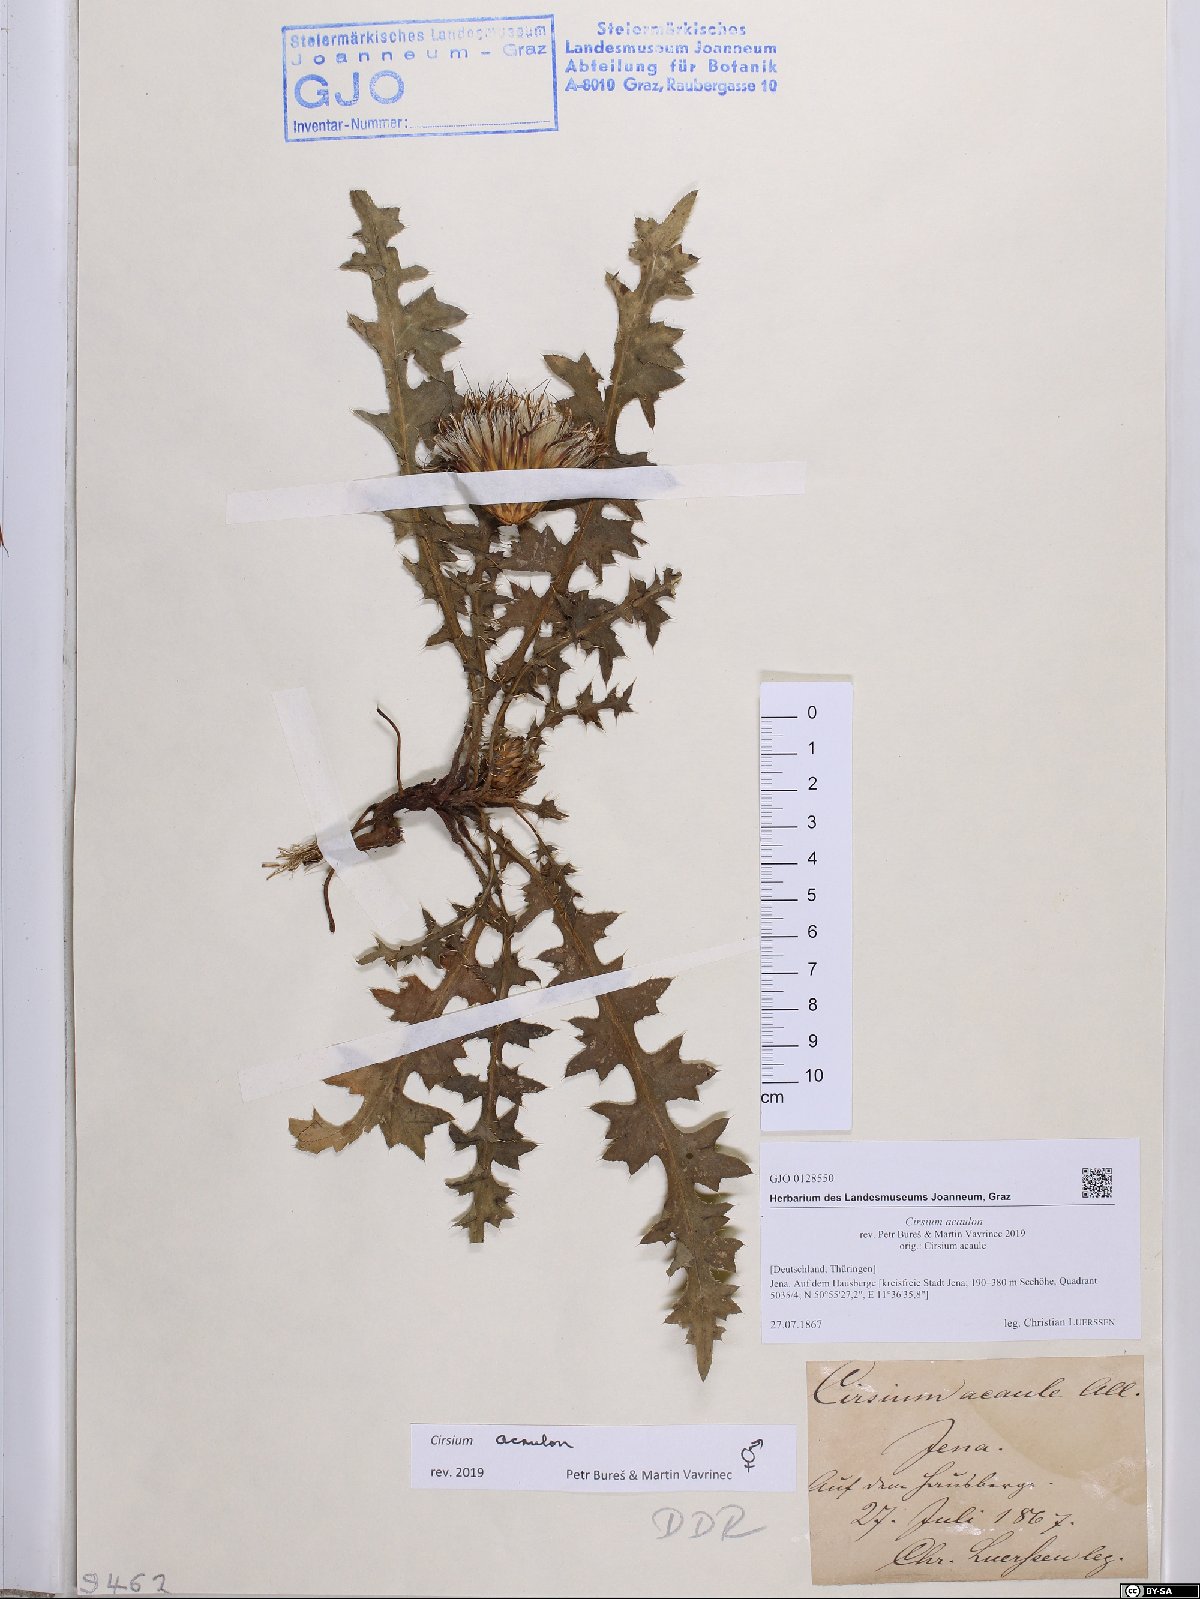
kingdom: Plantae
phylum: Tracheophyta
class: Magnoliopsida
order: Asterales
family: Asteraceae
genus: Cirsium
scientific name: Cirsium acaulon
